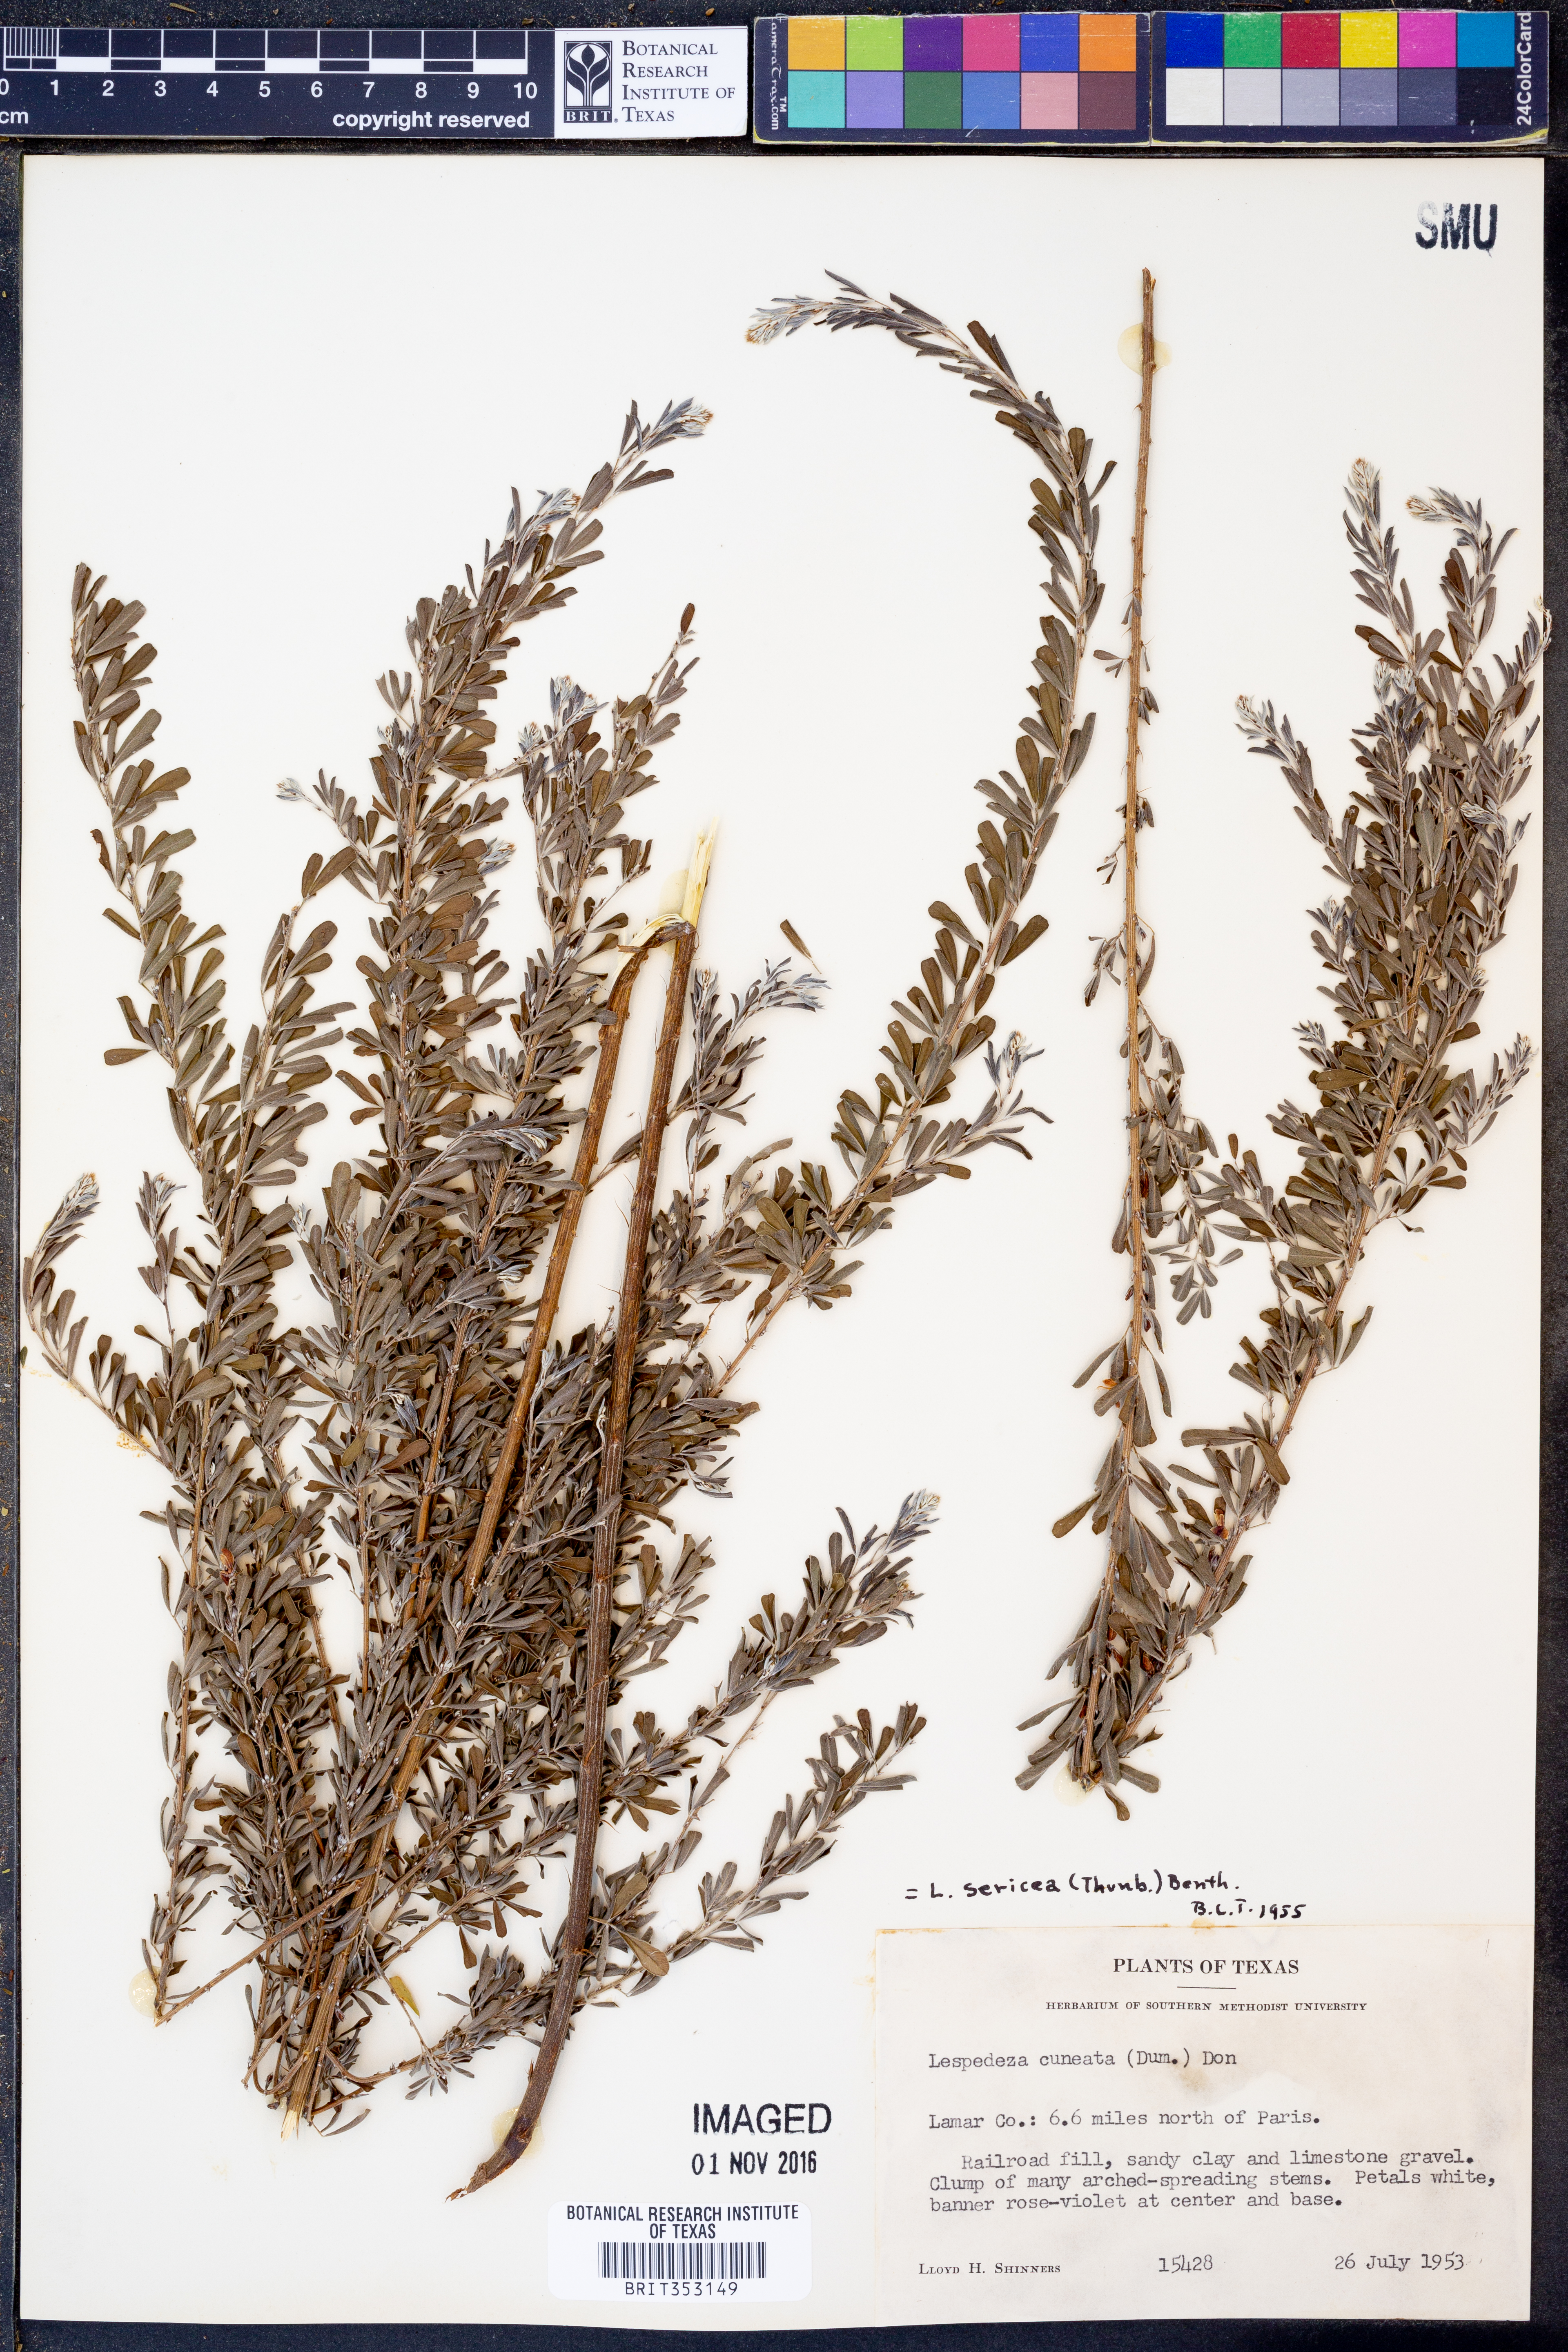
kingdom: Plantae
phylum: Tracheophyta
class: Magnoliopsida
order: Fabales
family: Fabaceae
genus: Lespedeza
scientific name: Lespedeza cuneata
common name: Chinese bush-clover
